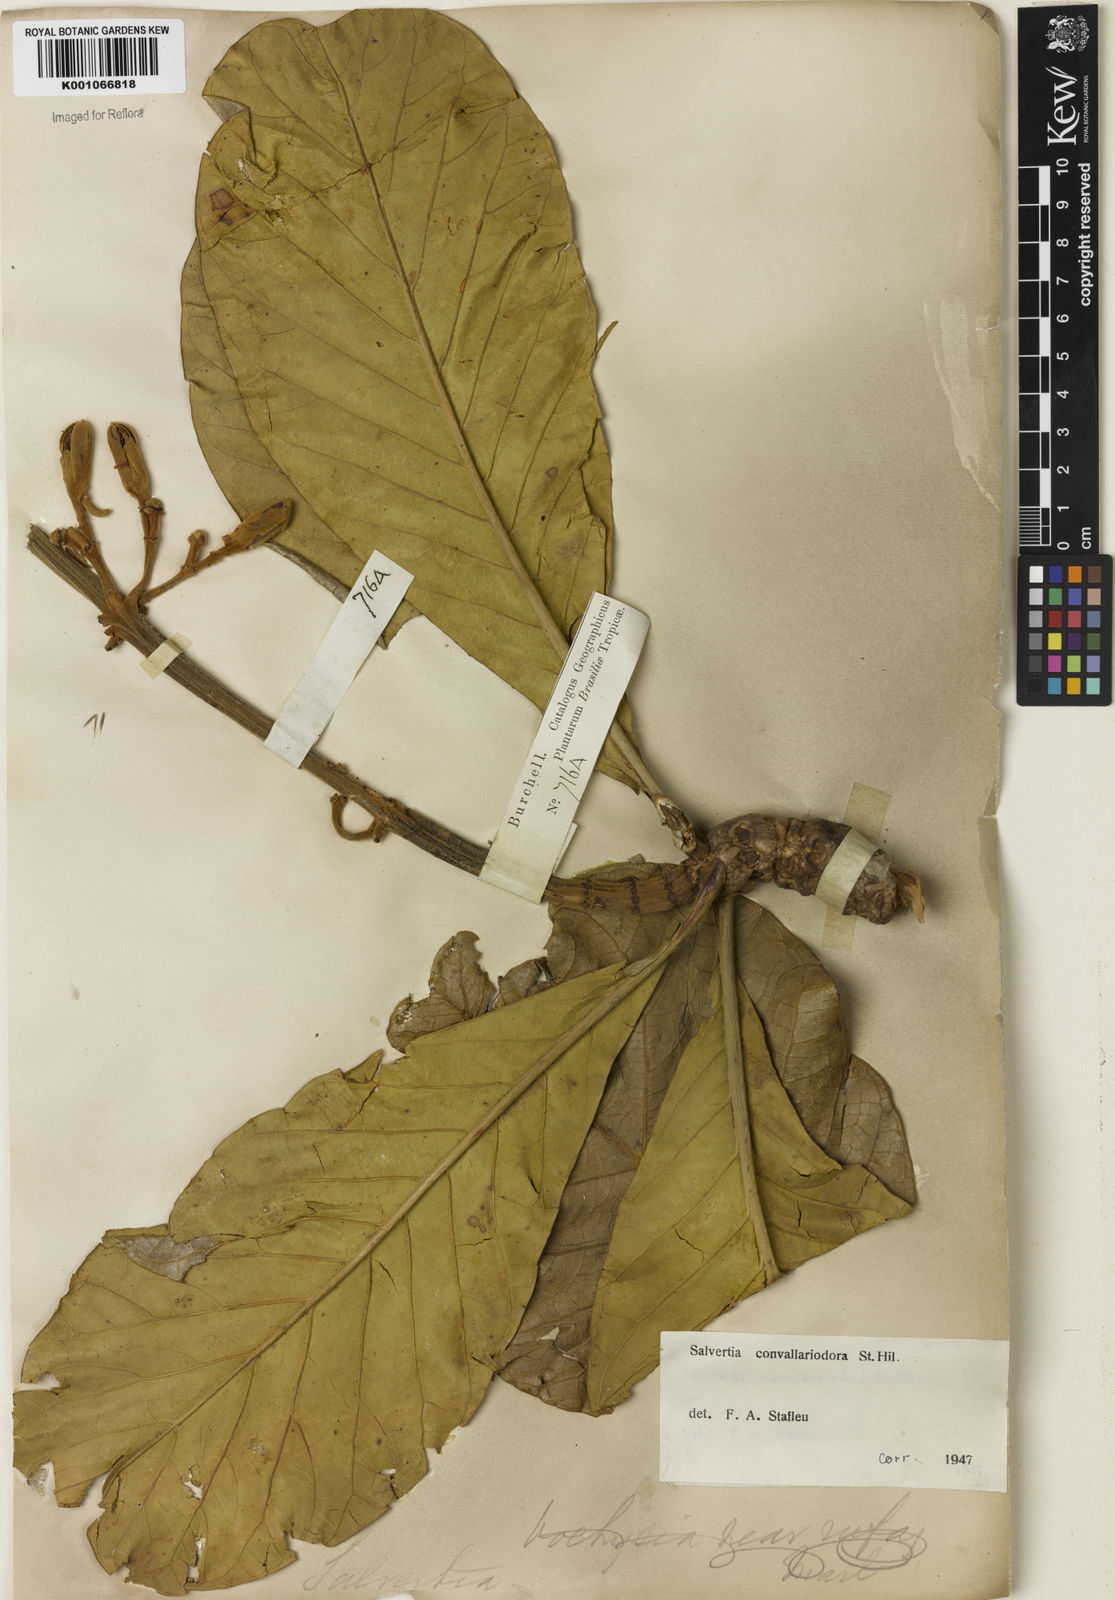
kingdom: Plantae
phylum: Tracheophyta
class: Magnoliopsida
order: Myrtales
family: Vochysiaceae
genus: Salvertia
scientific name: Salvertia convallariodora
